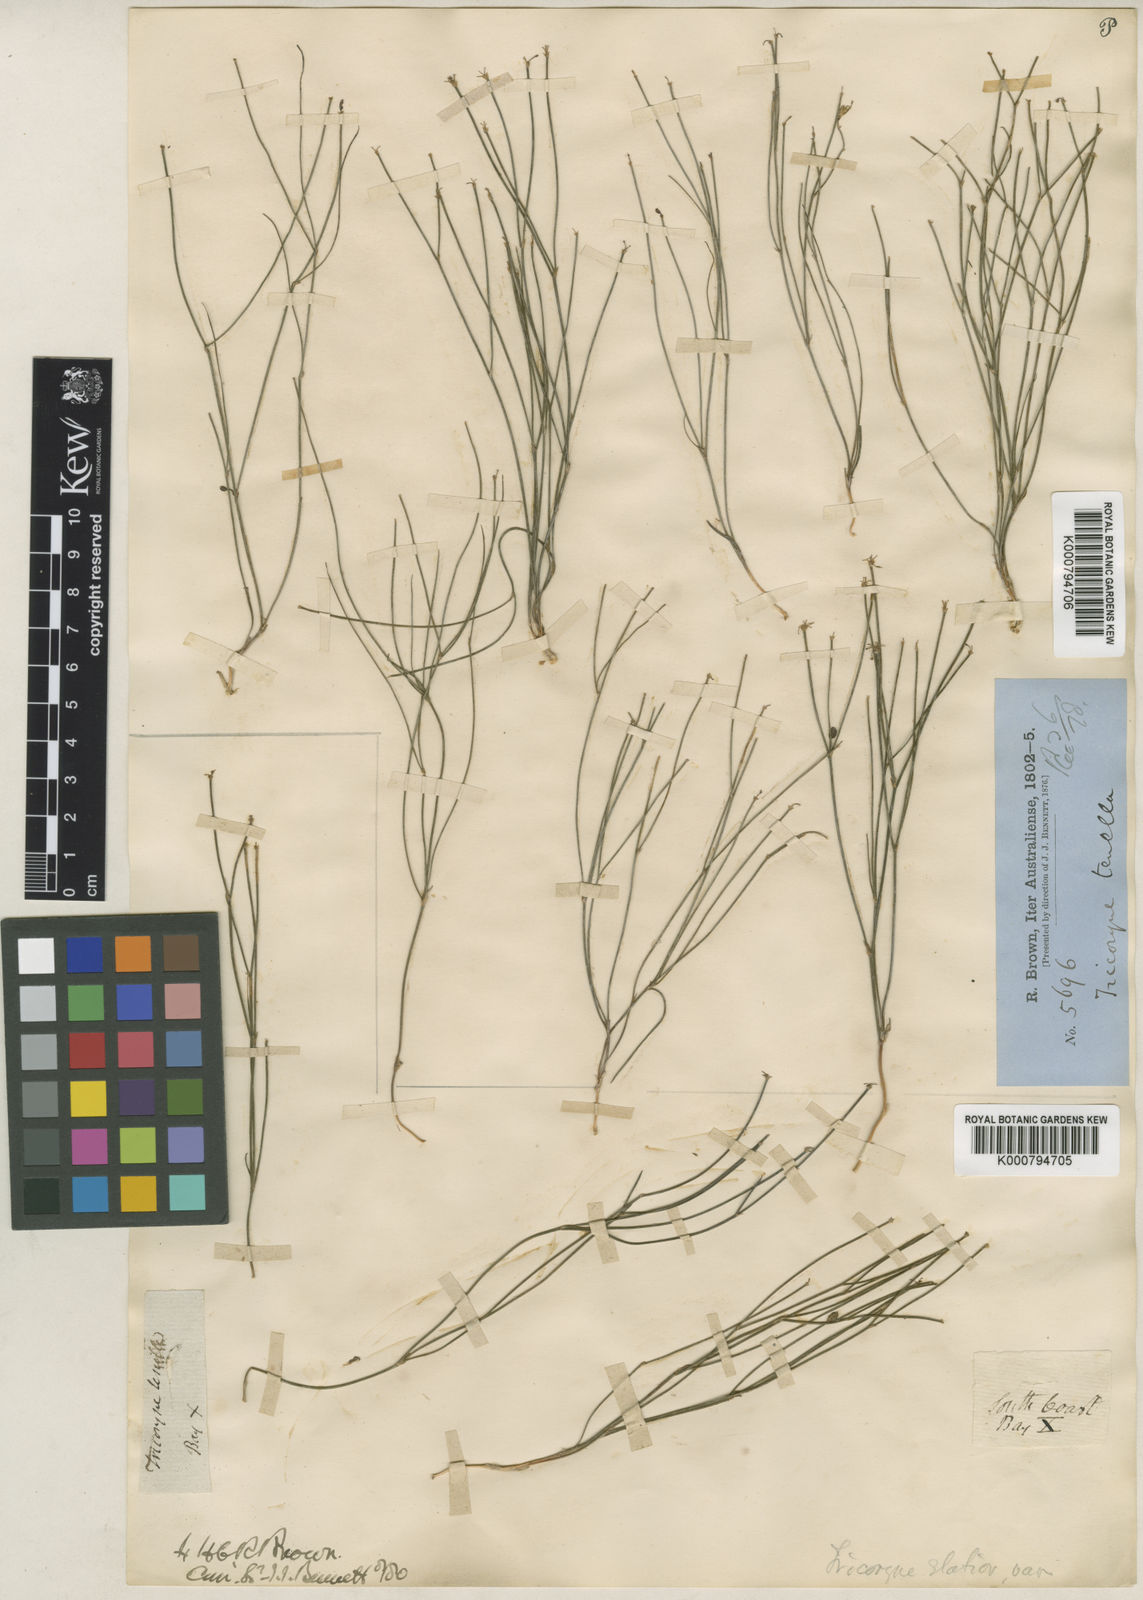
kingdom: Plantae
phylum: Tracheophyta
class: Liliopsida
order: Asparagales
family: Asphodelaceae
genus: Tricoryne
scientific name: Tricoryne elatior
